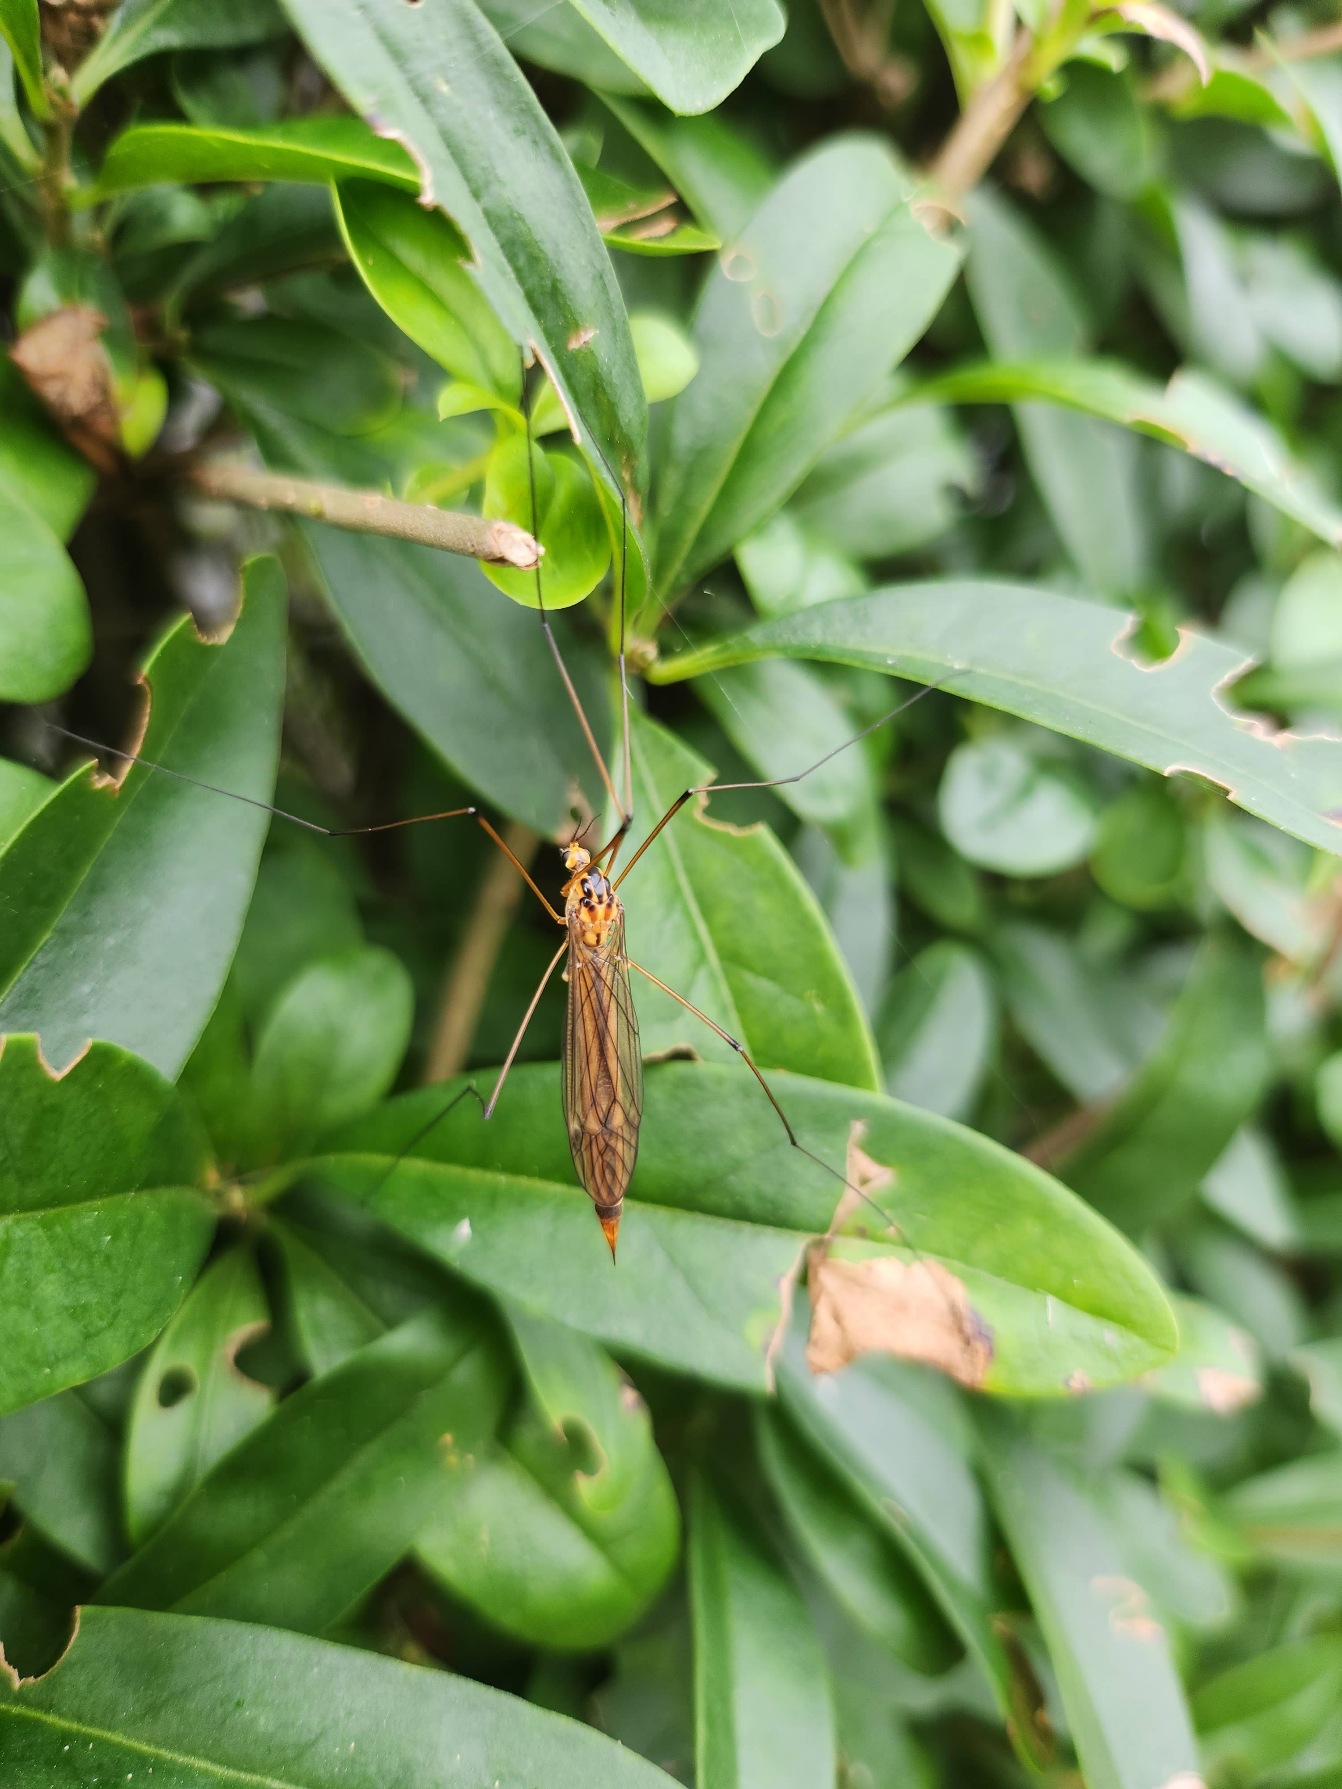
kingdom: Animalia
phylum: Arthropoda
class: Insecta
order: Diptera
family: Tipulidae
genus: Nephrotoma
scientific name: Nephrotoma scurra
